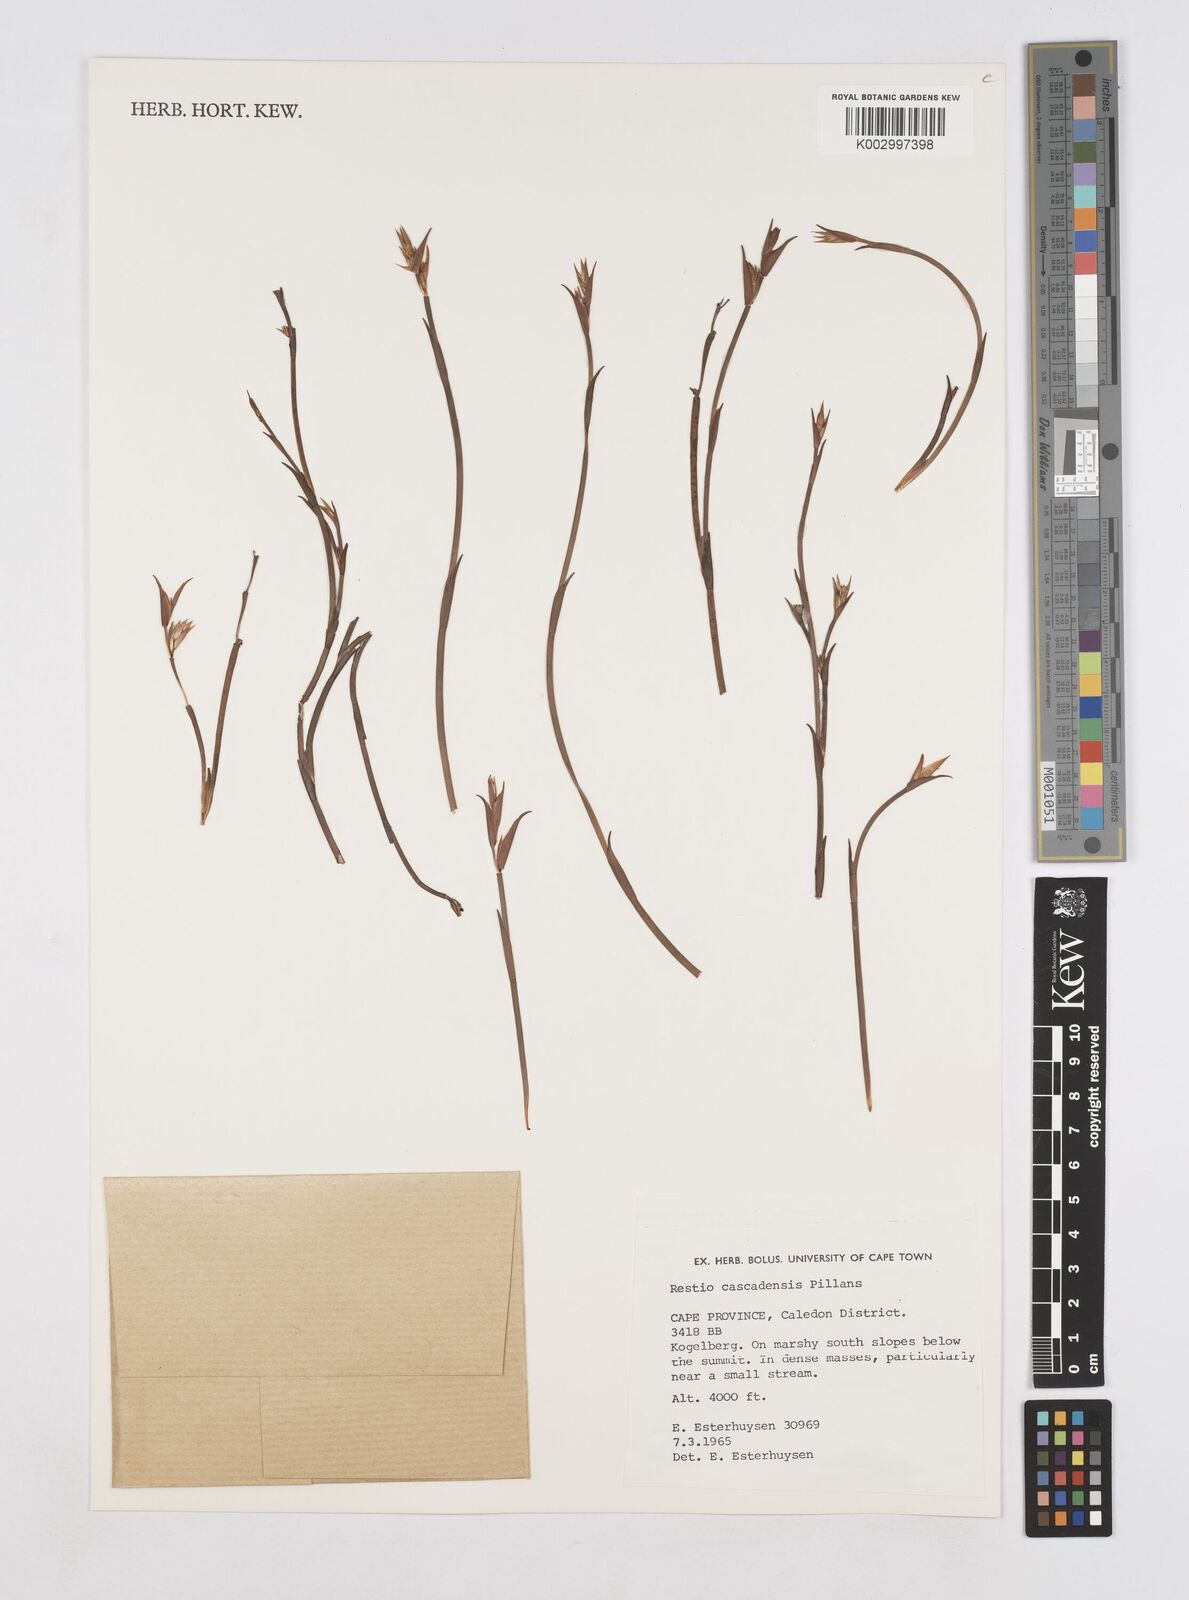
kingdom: Plantae
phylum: Tracheophyta
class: Liliopsida
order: Poales
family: Restionaceae
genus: Platycaulos
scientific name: Platycaulos cascadensis
